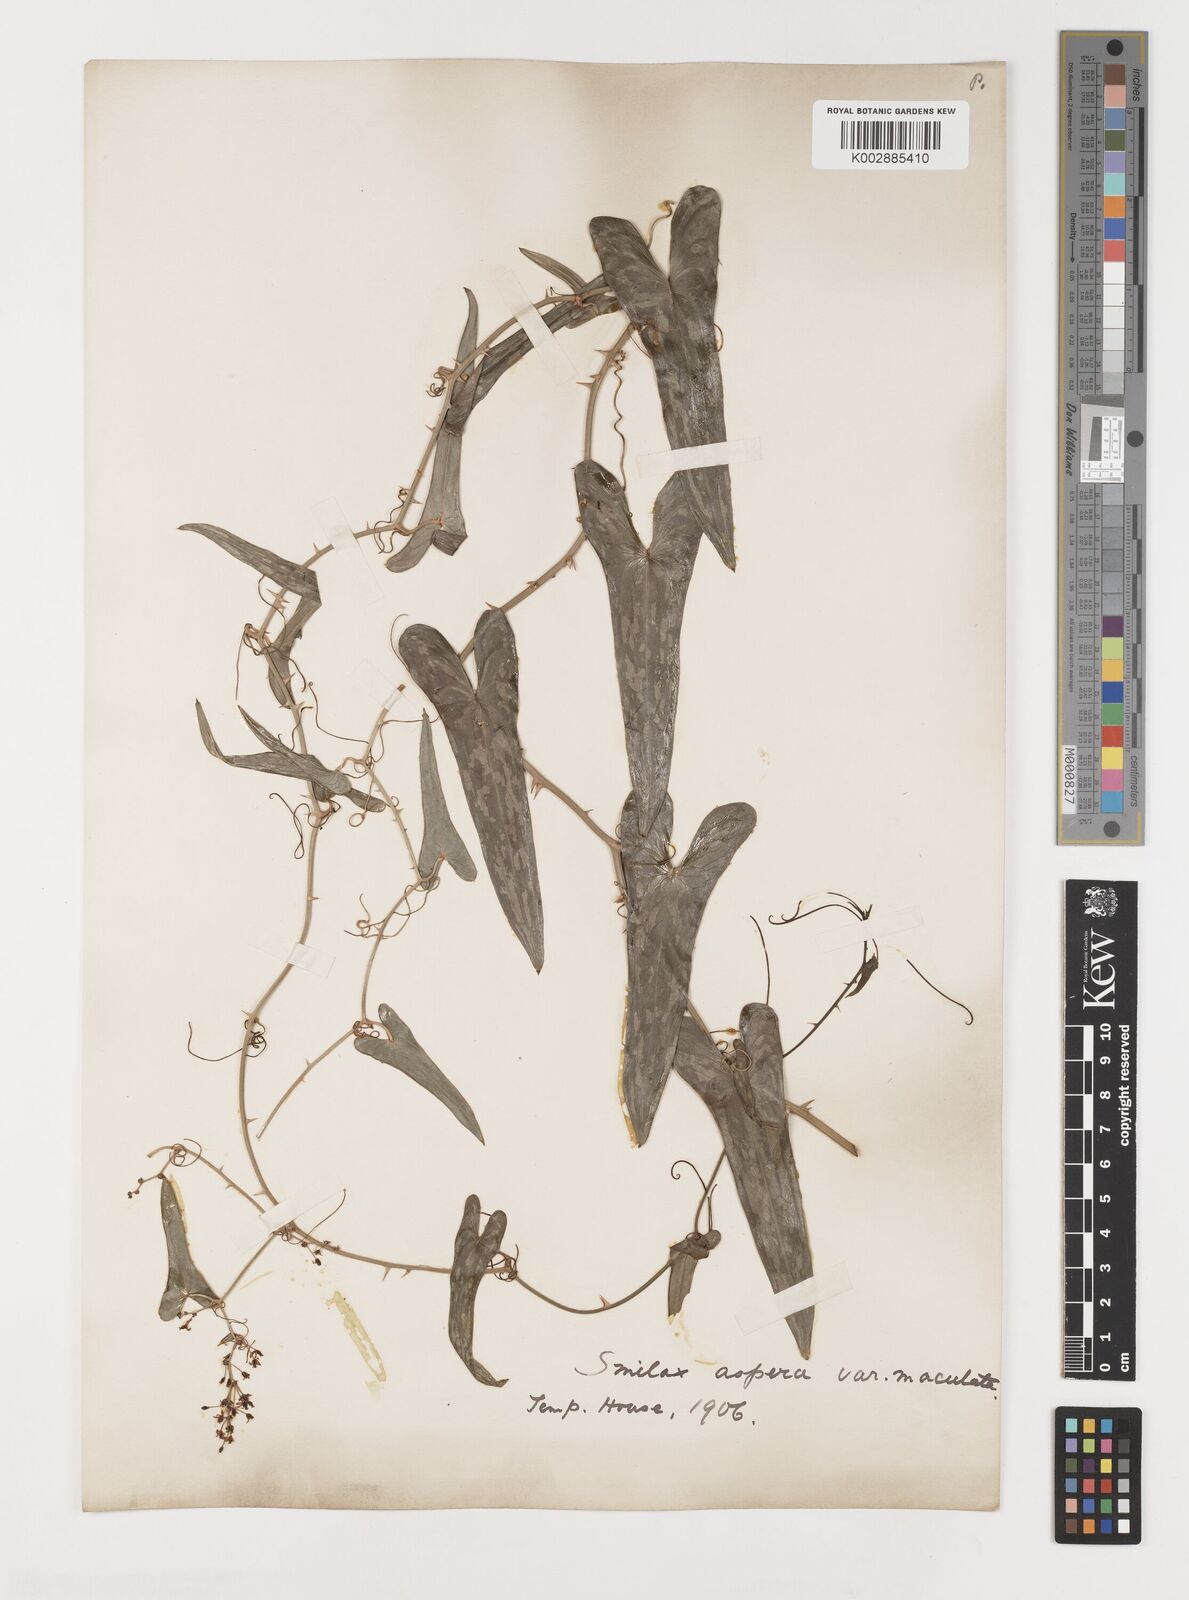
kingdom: Plantae
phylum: Tracheophyta
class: Liliopsida
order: Liliales
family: Smilacaceae
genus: Smilax
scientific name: Smilax aspera
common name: Common smilax
